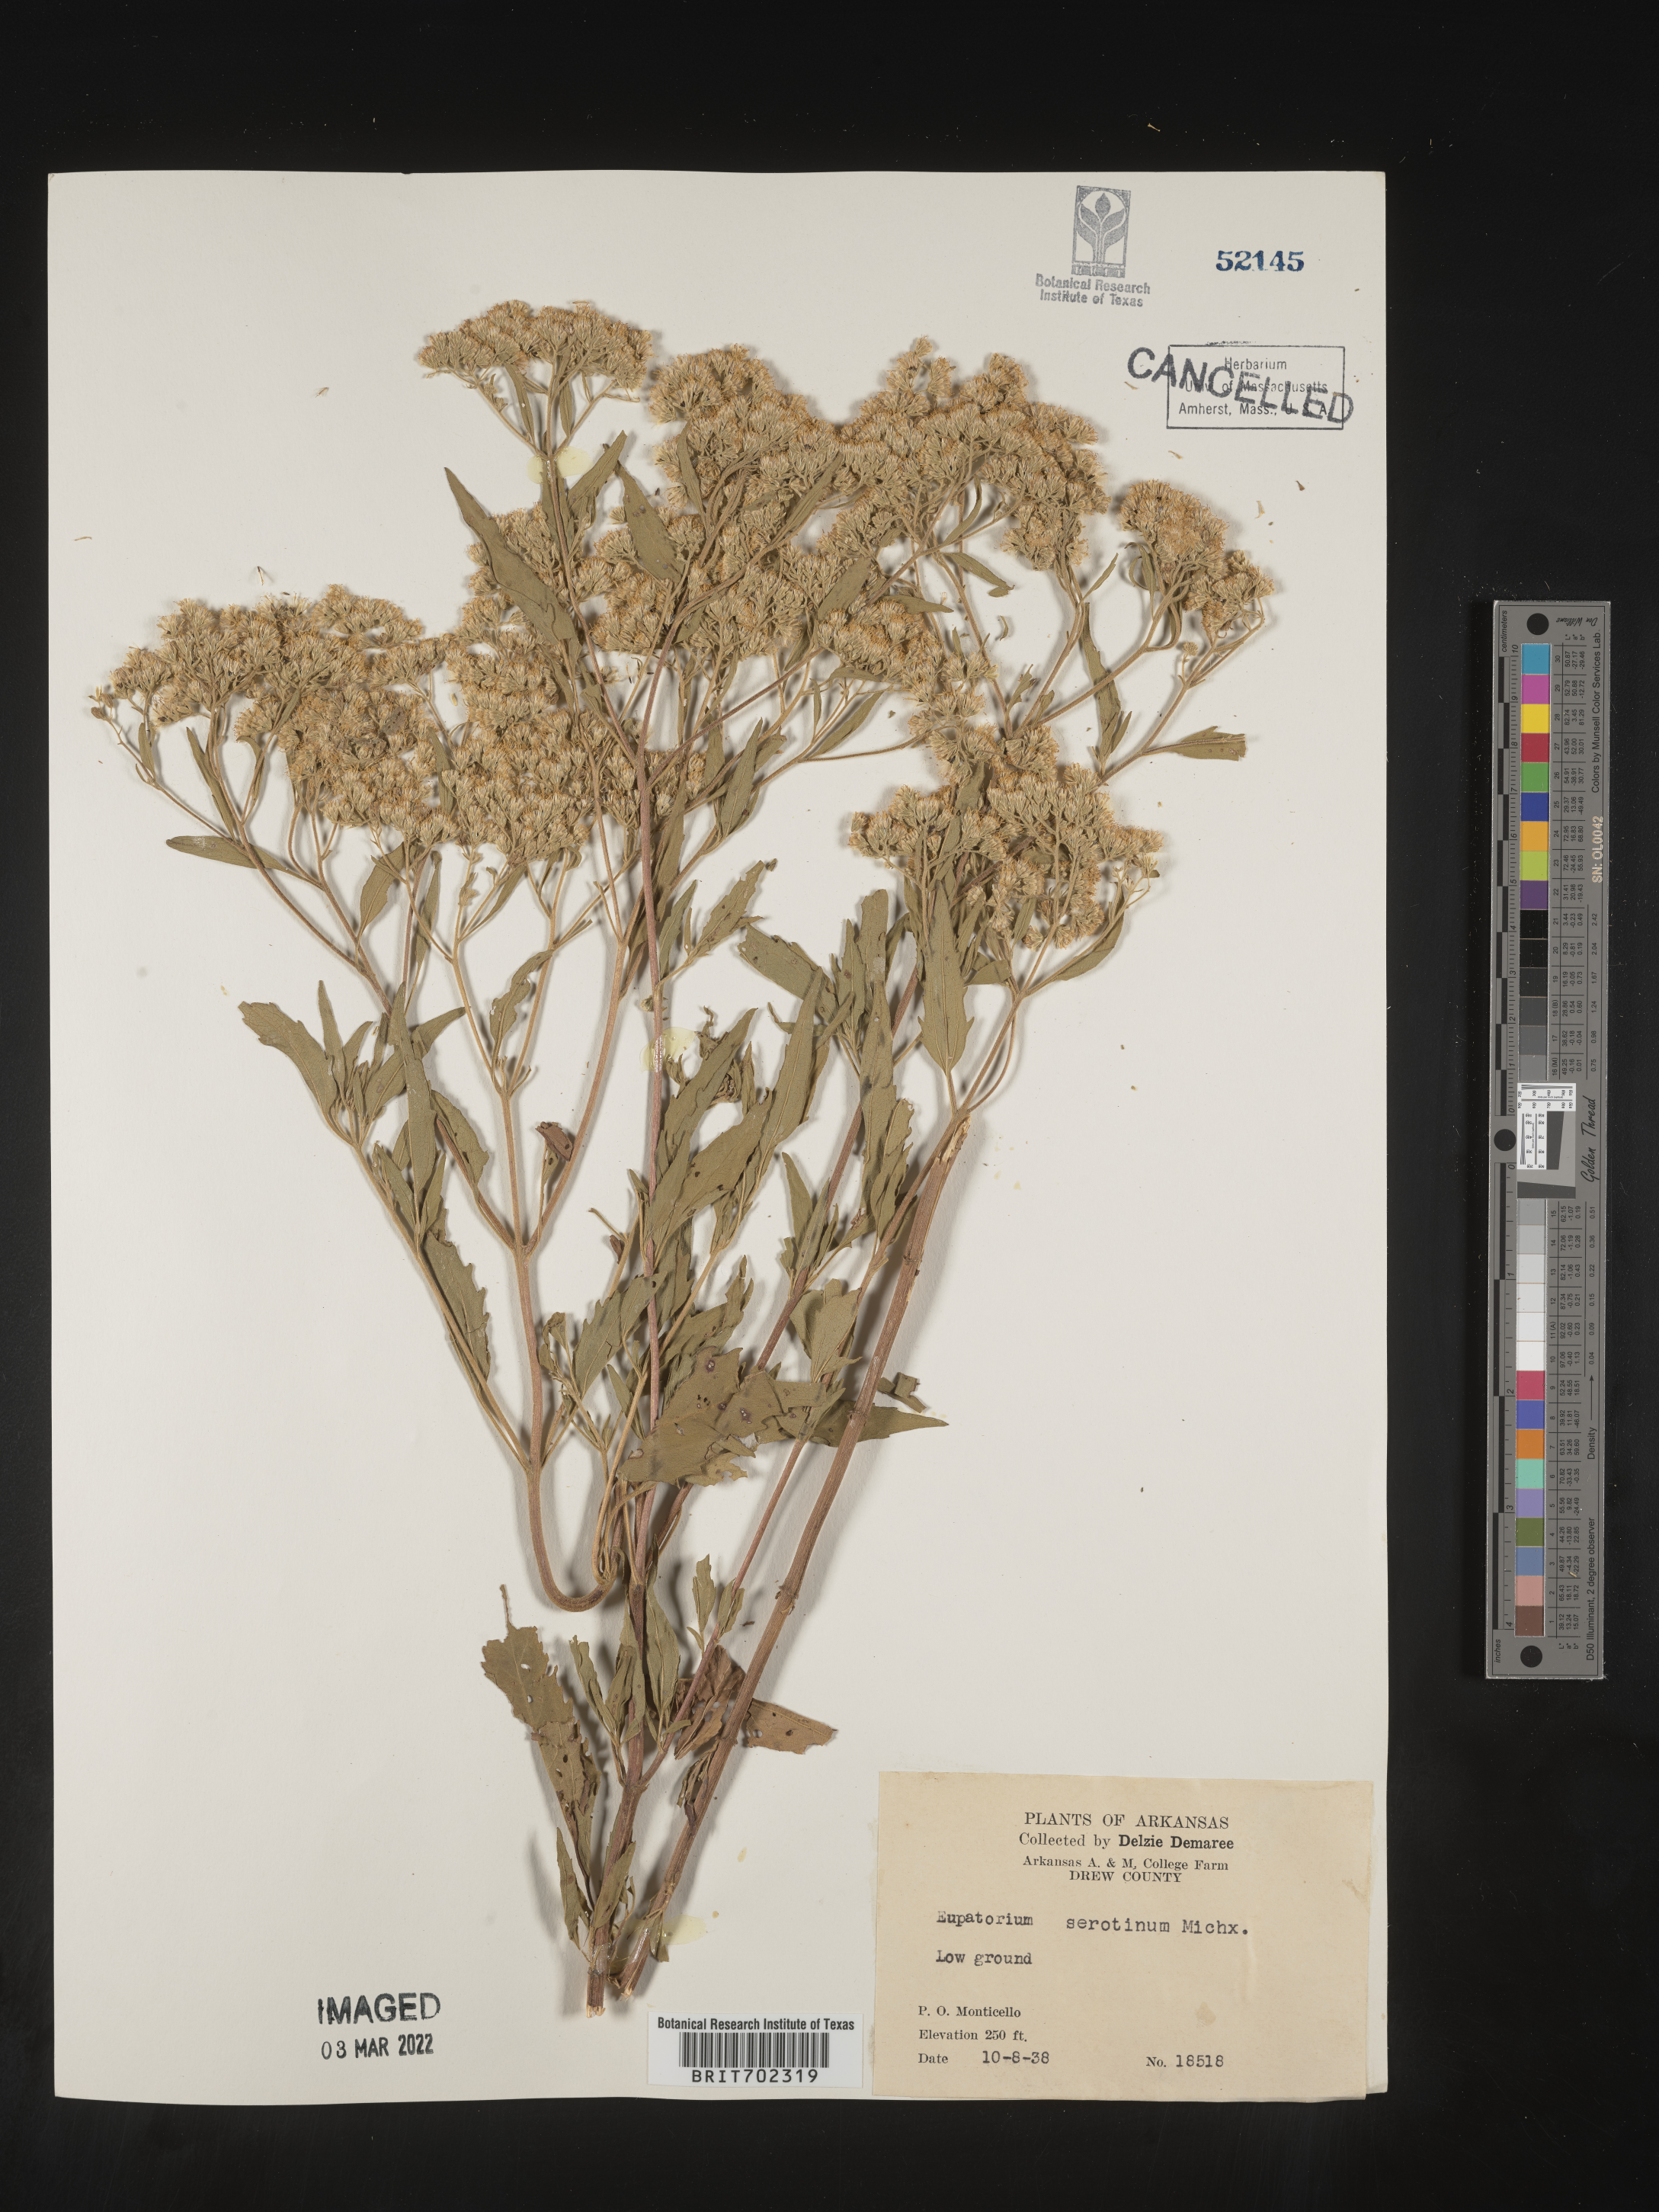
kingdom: Plantae
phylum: Tracheophyta
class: Magnoliopsida
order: Asterales
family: Asteraceae
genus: Eupatorium
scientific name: Eupatorium serotinum
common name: Late boneset
